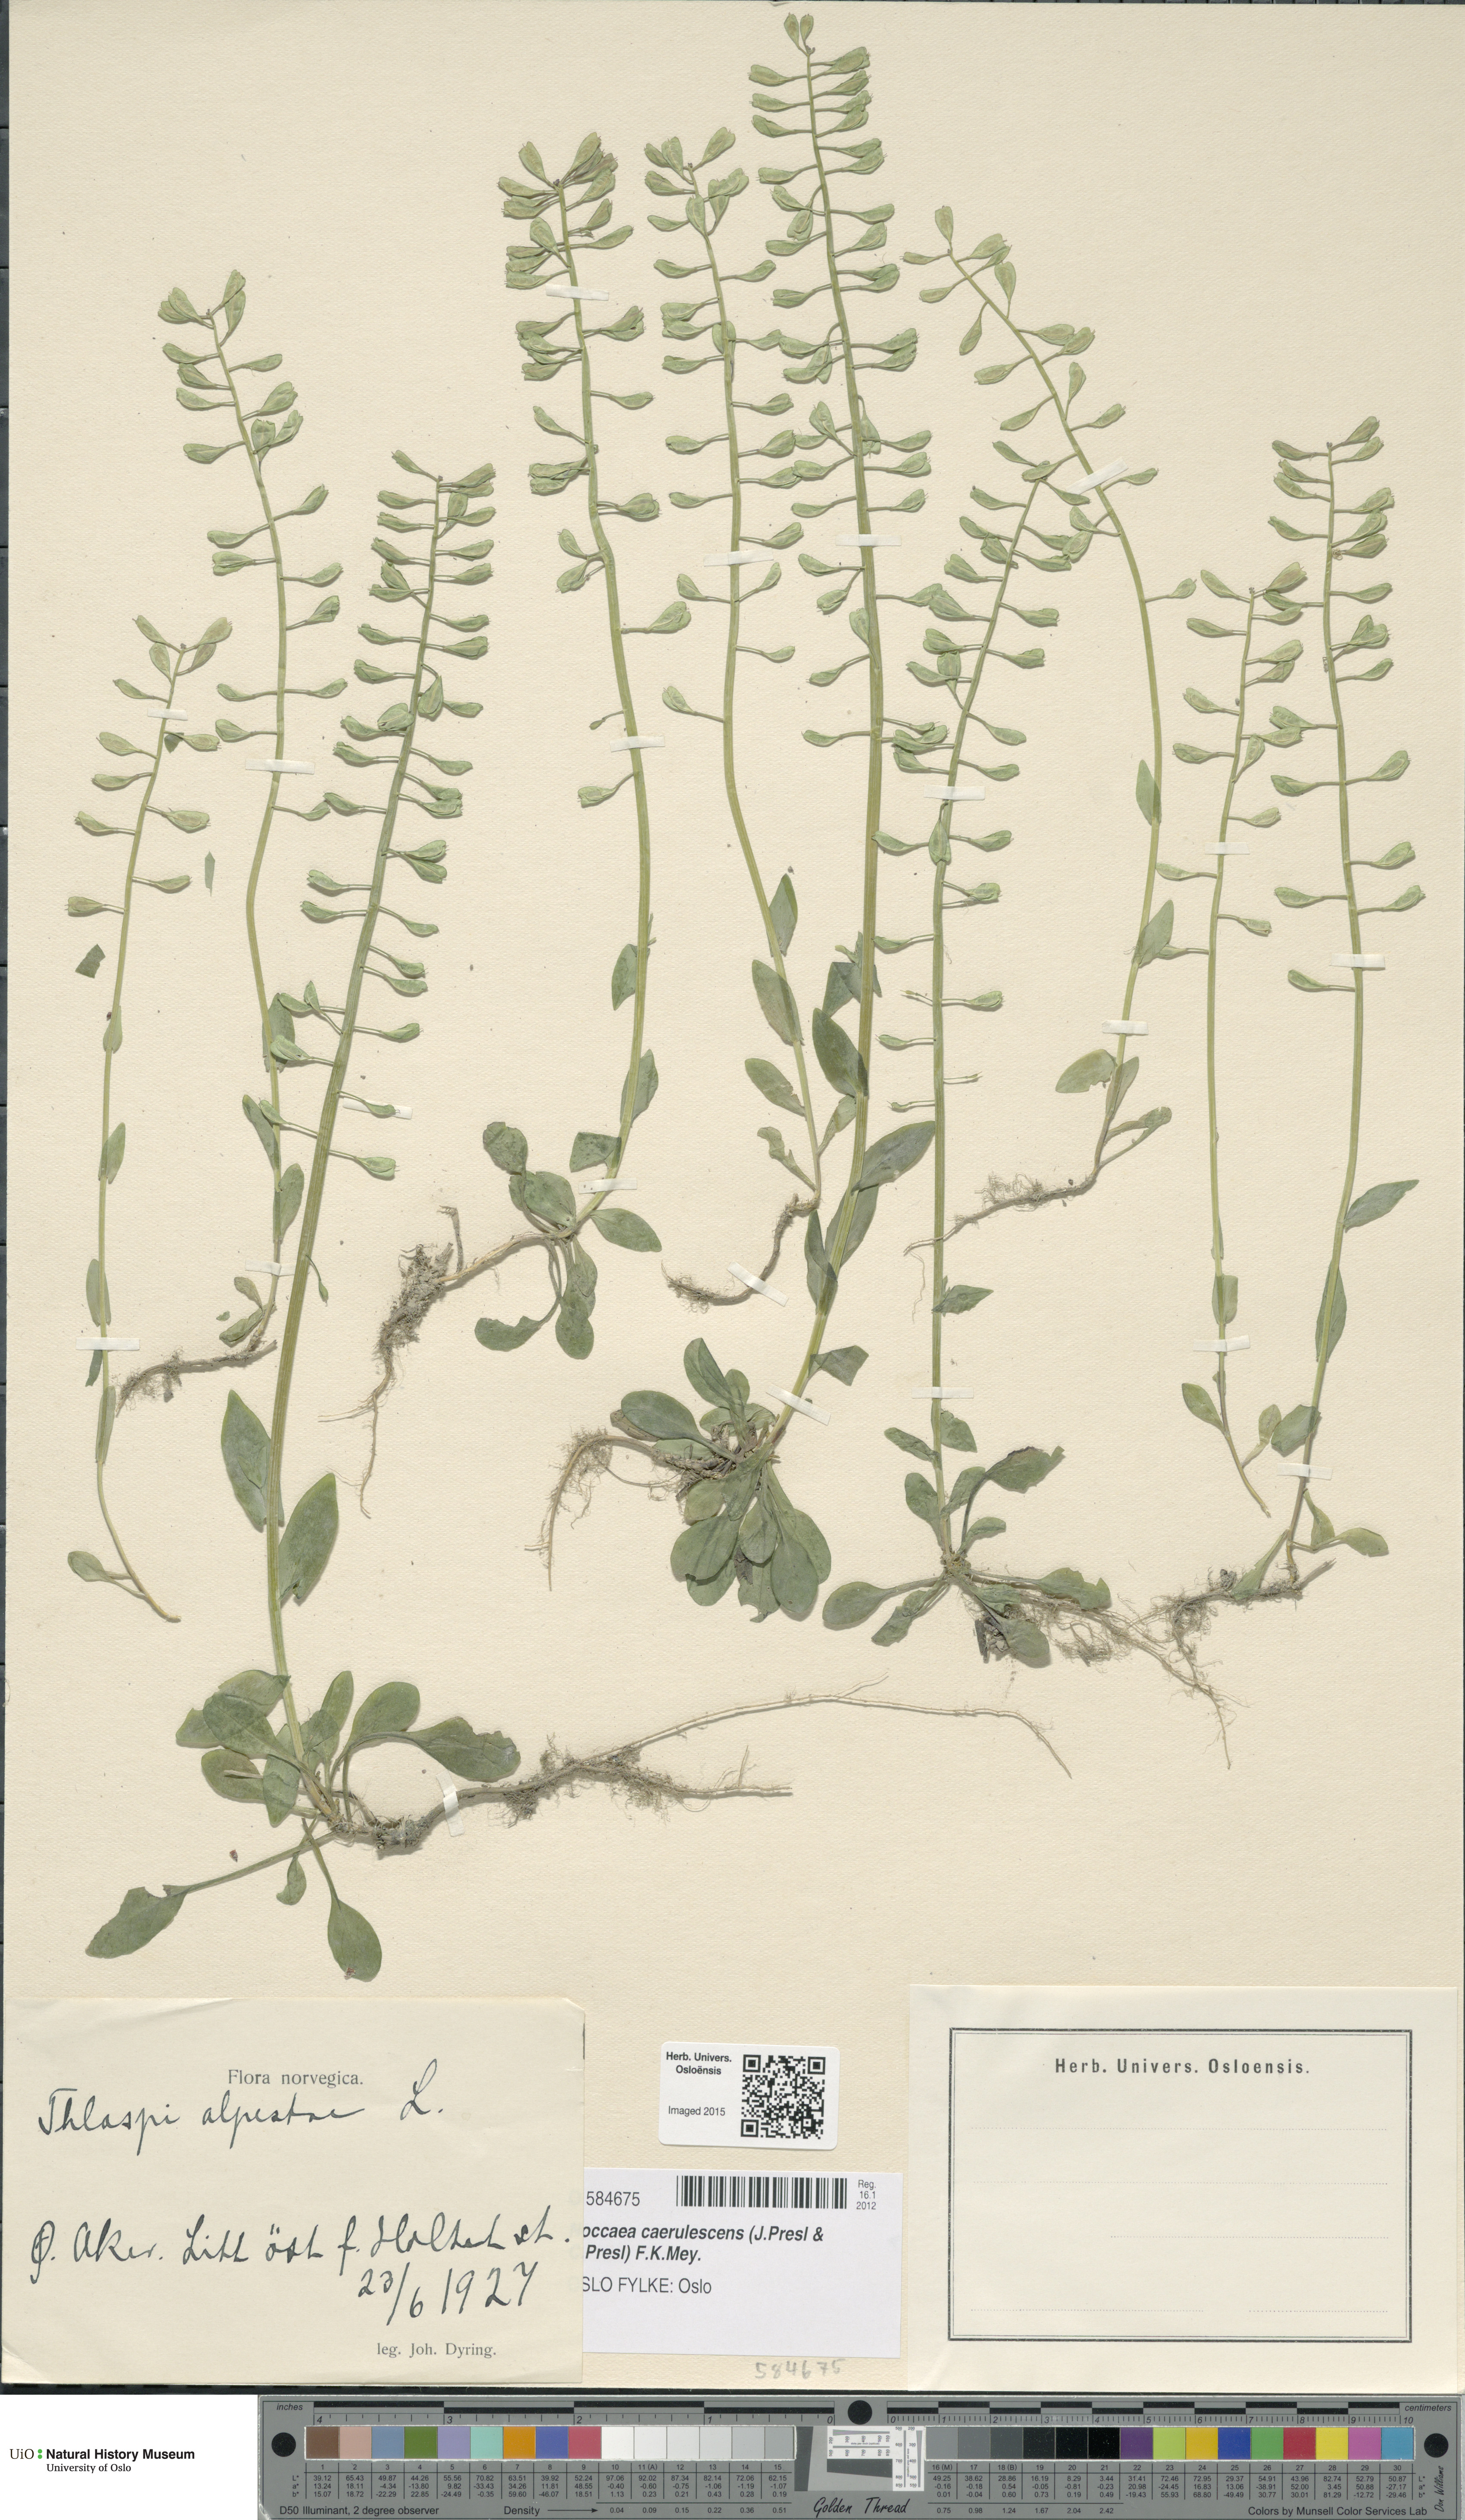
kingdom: Plantae
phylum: Tracheophyta
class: Magnoliopsida
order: Brassicales
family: Brassicaceae
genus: Noccaea
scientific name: Noccaea caerulescens
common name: Alpine pennycress
